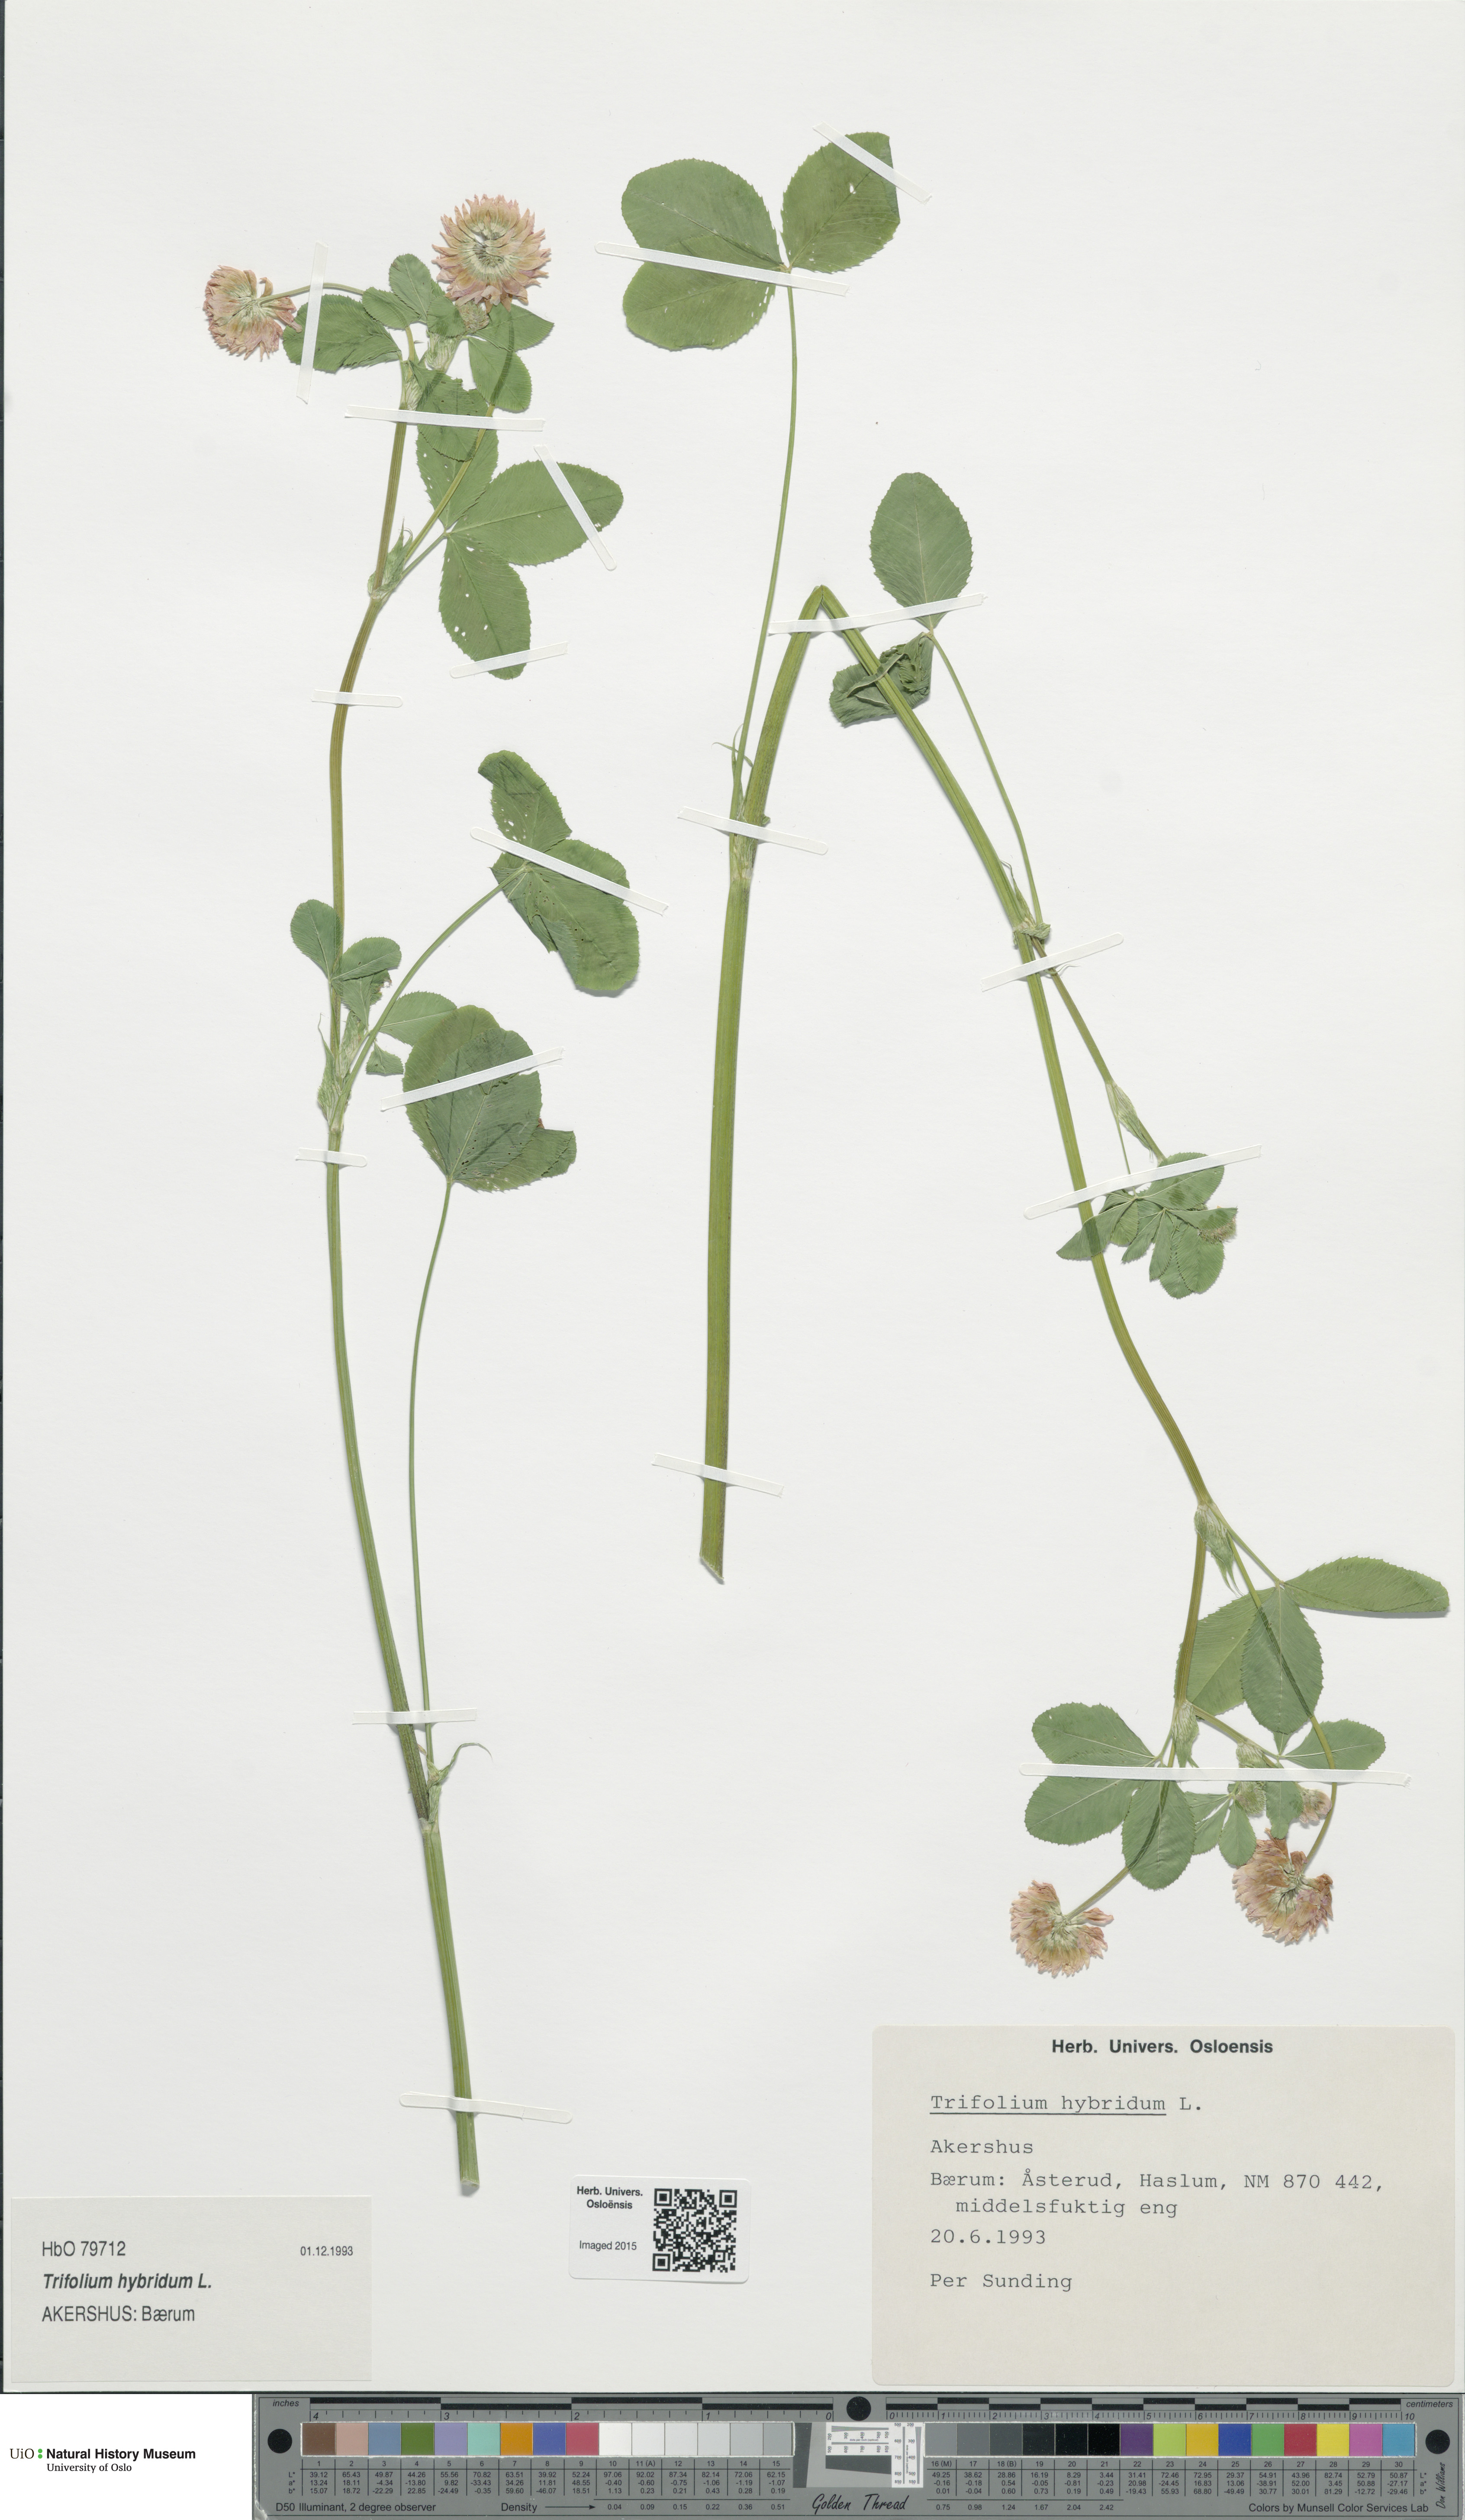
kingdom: Plantae
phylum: Tracheophyta
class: Magnoliopsida
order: Fabales
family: Fabaceae
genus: Trifolium
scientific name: Trifolium hybridum
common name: Alsike clover
